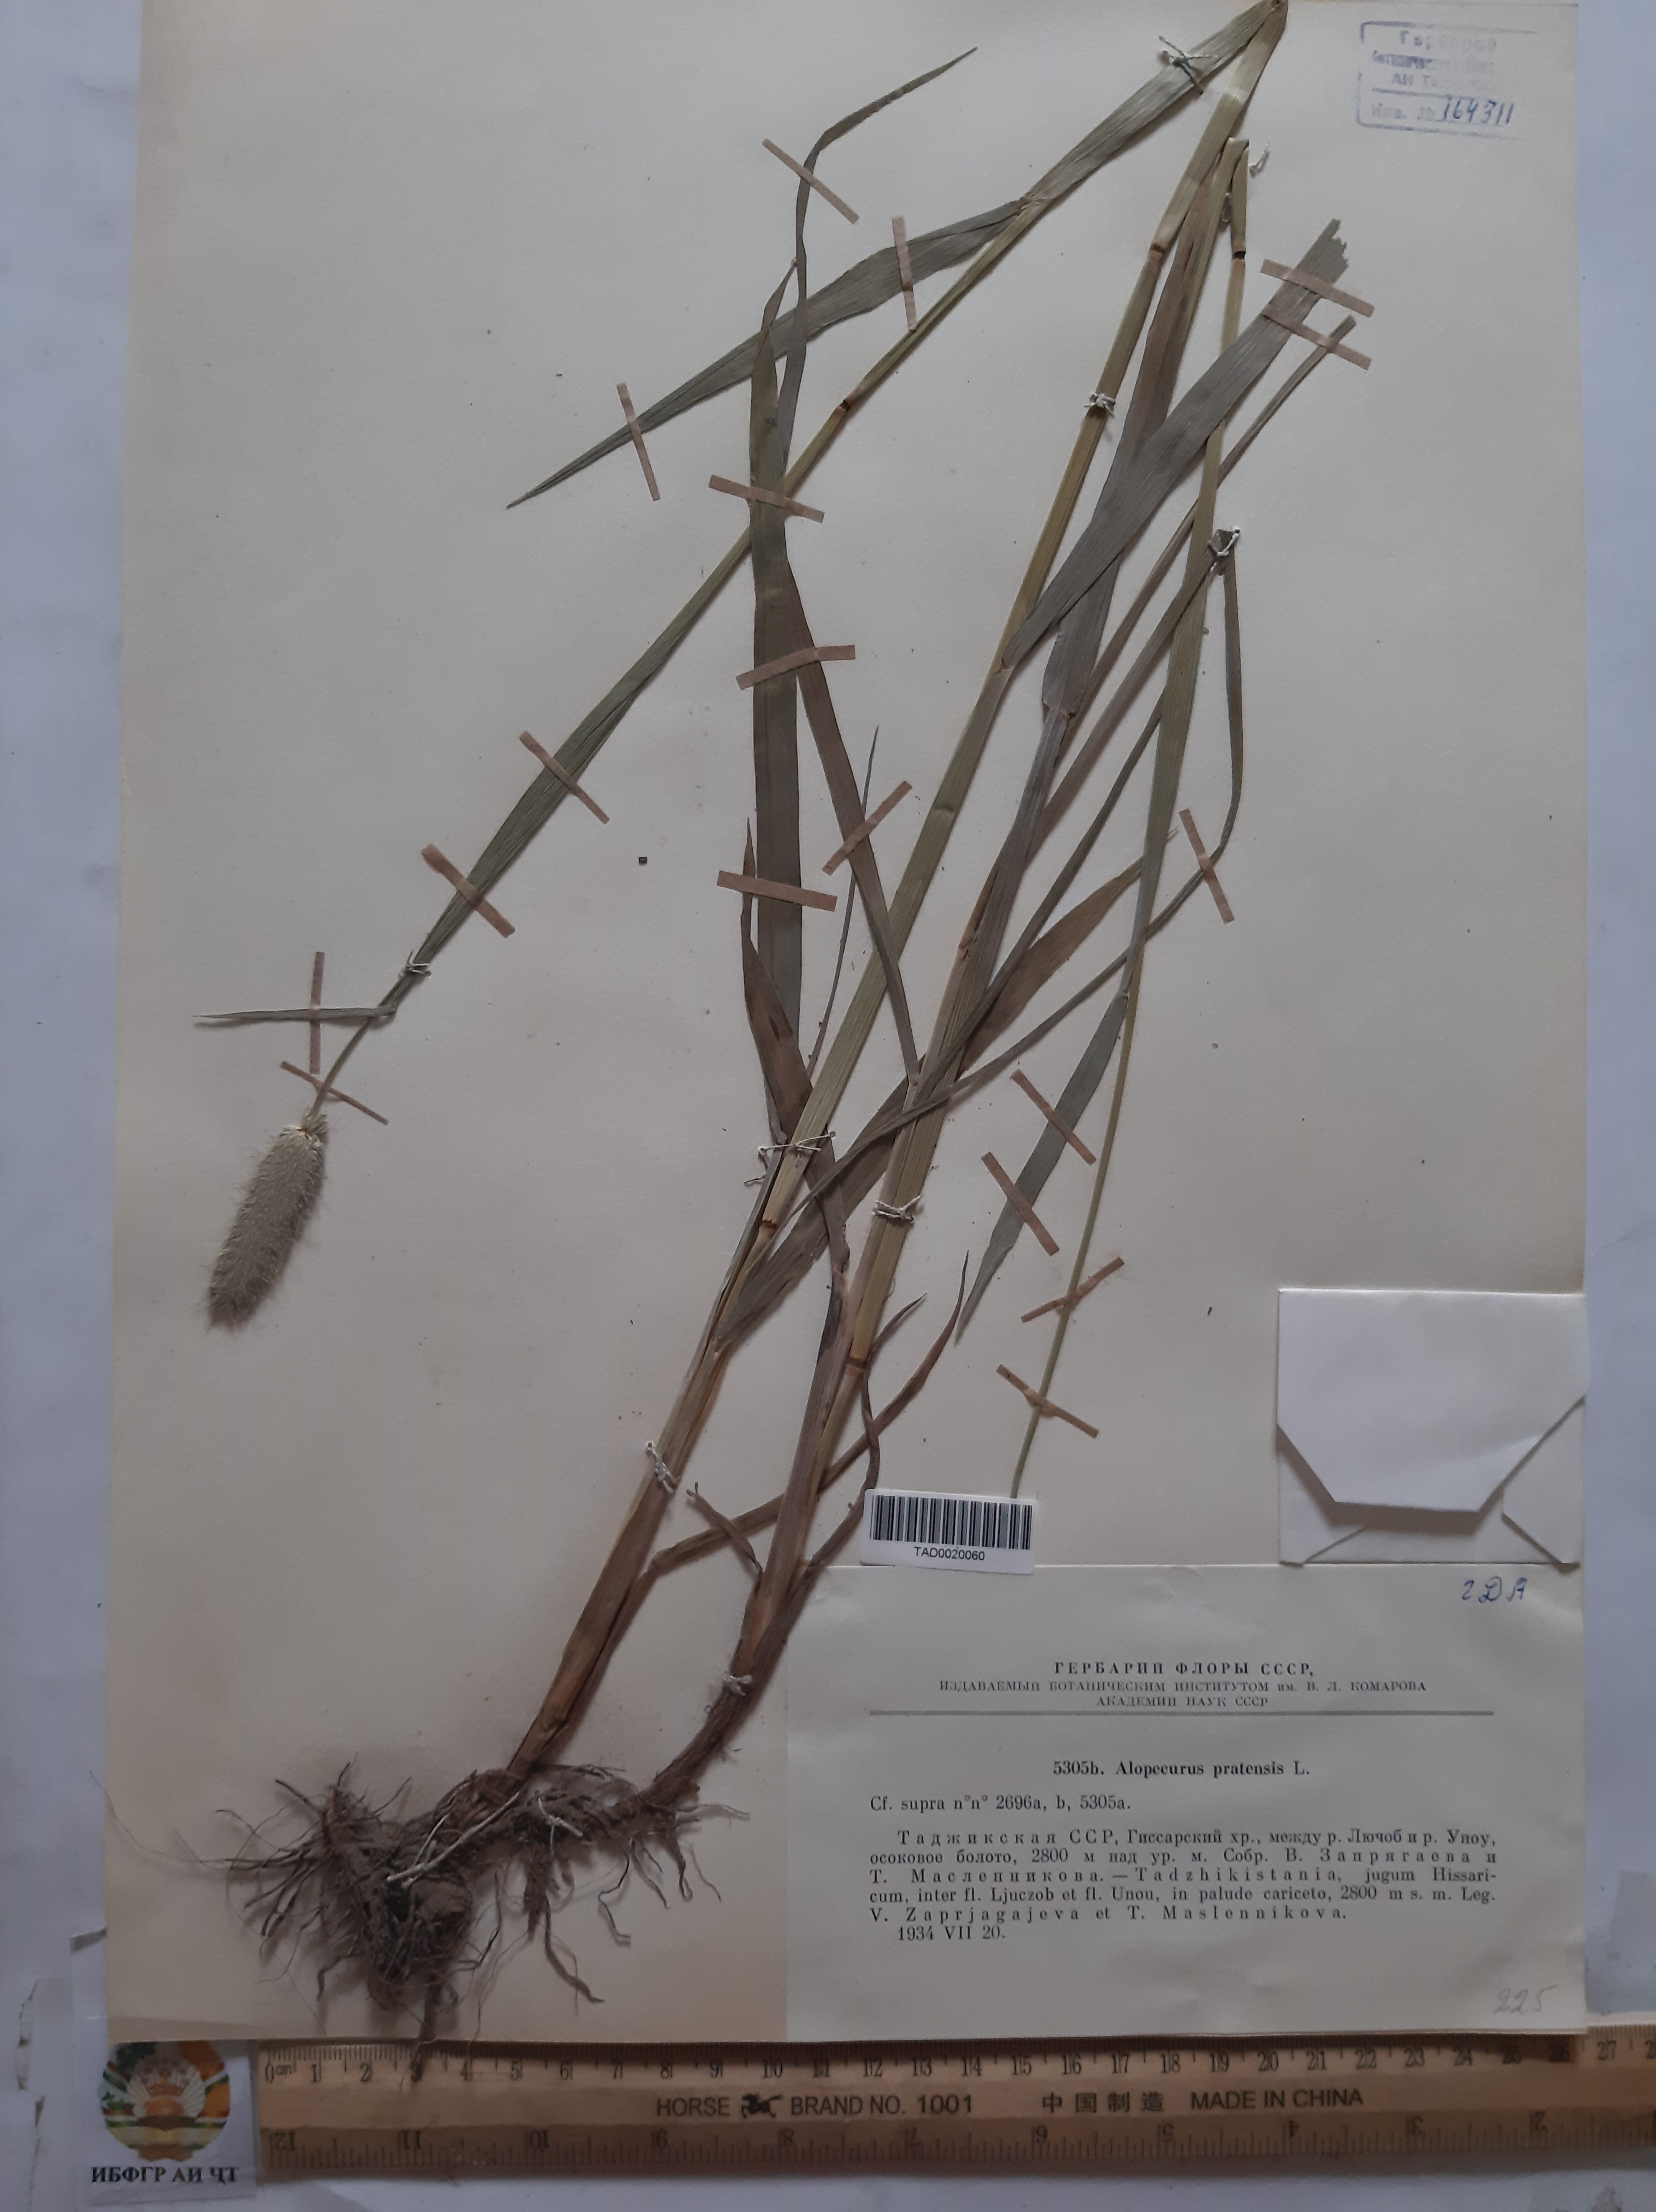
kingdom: Plantae
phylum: Tracheophyta
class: Liliopsida
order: Poales
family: Poaceae
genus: Alopecurus
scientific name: Alopecurus pratensis
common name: Meadow foxtail
